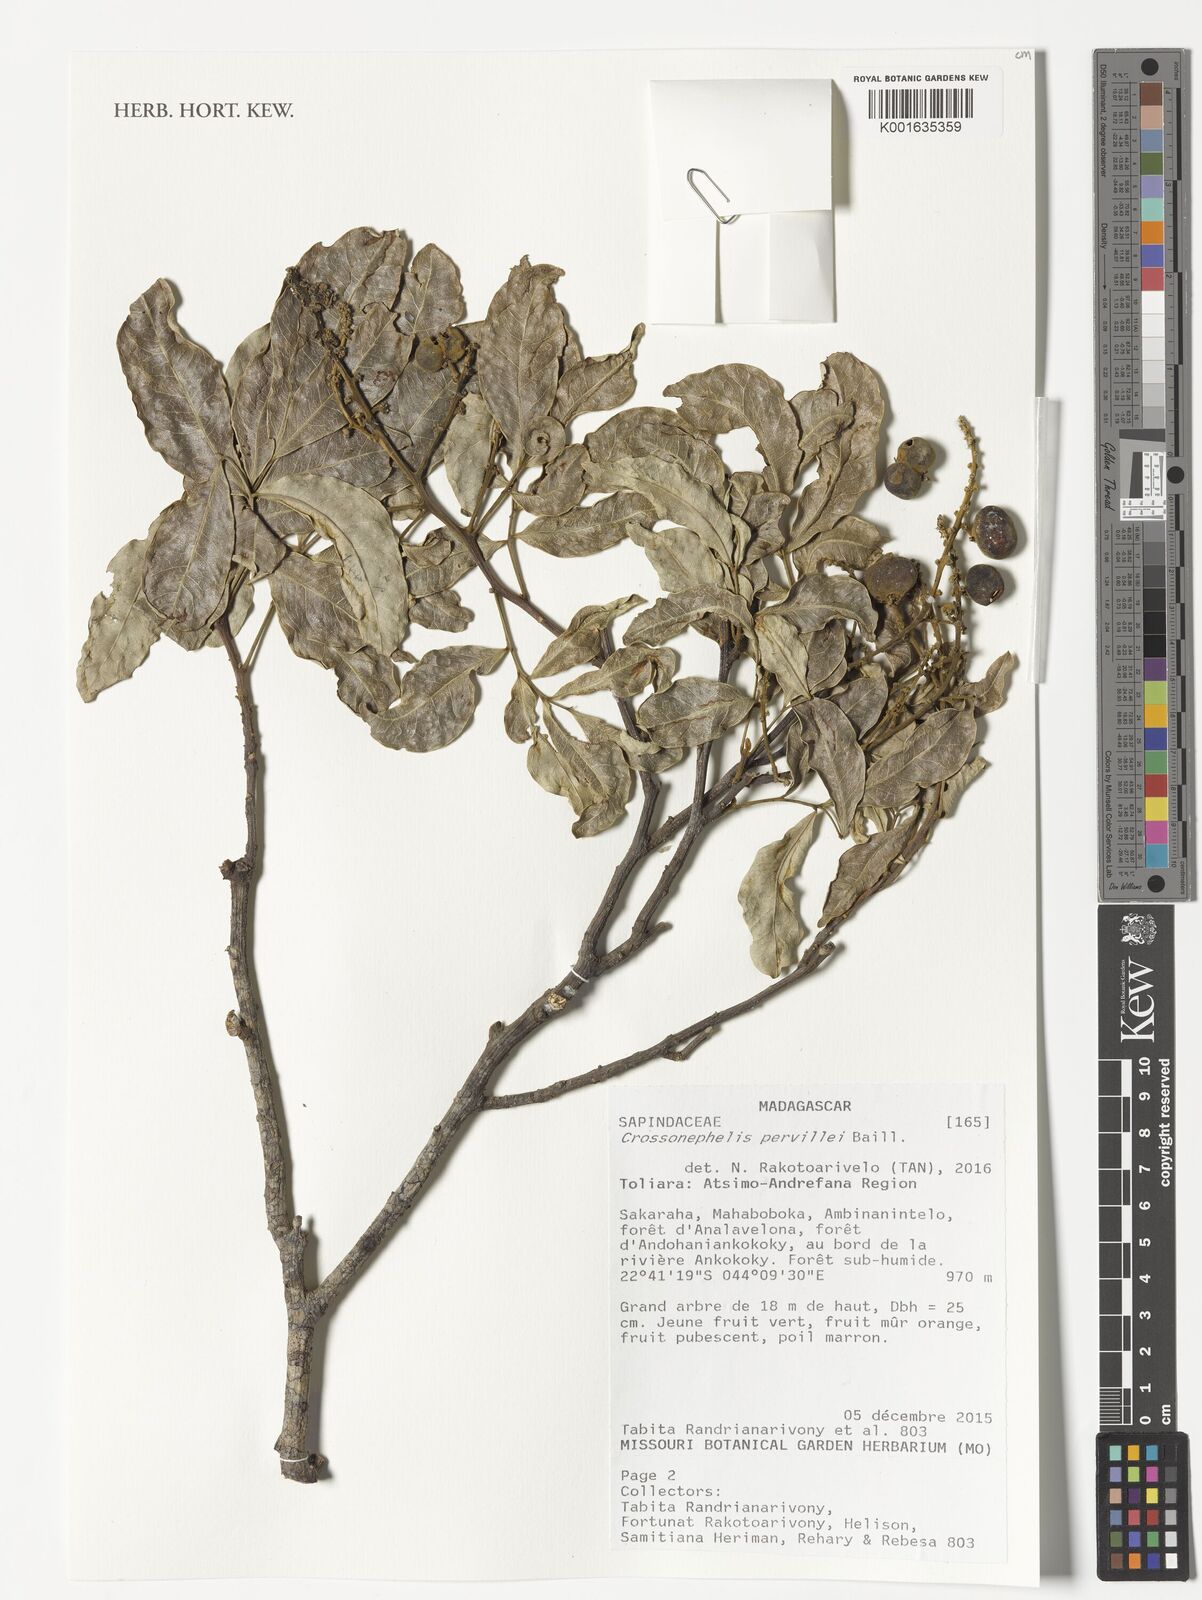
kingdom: Plantae
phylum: Tracheophyta
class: Magnoliopsida
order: Sapindales
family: Sapindaceae
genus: Glenniea
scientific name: Glenniea pervillei
